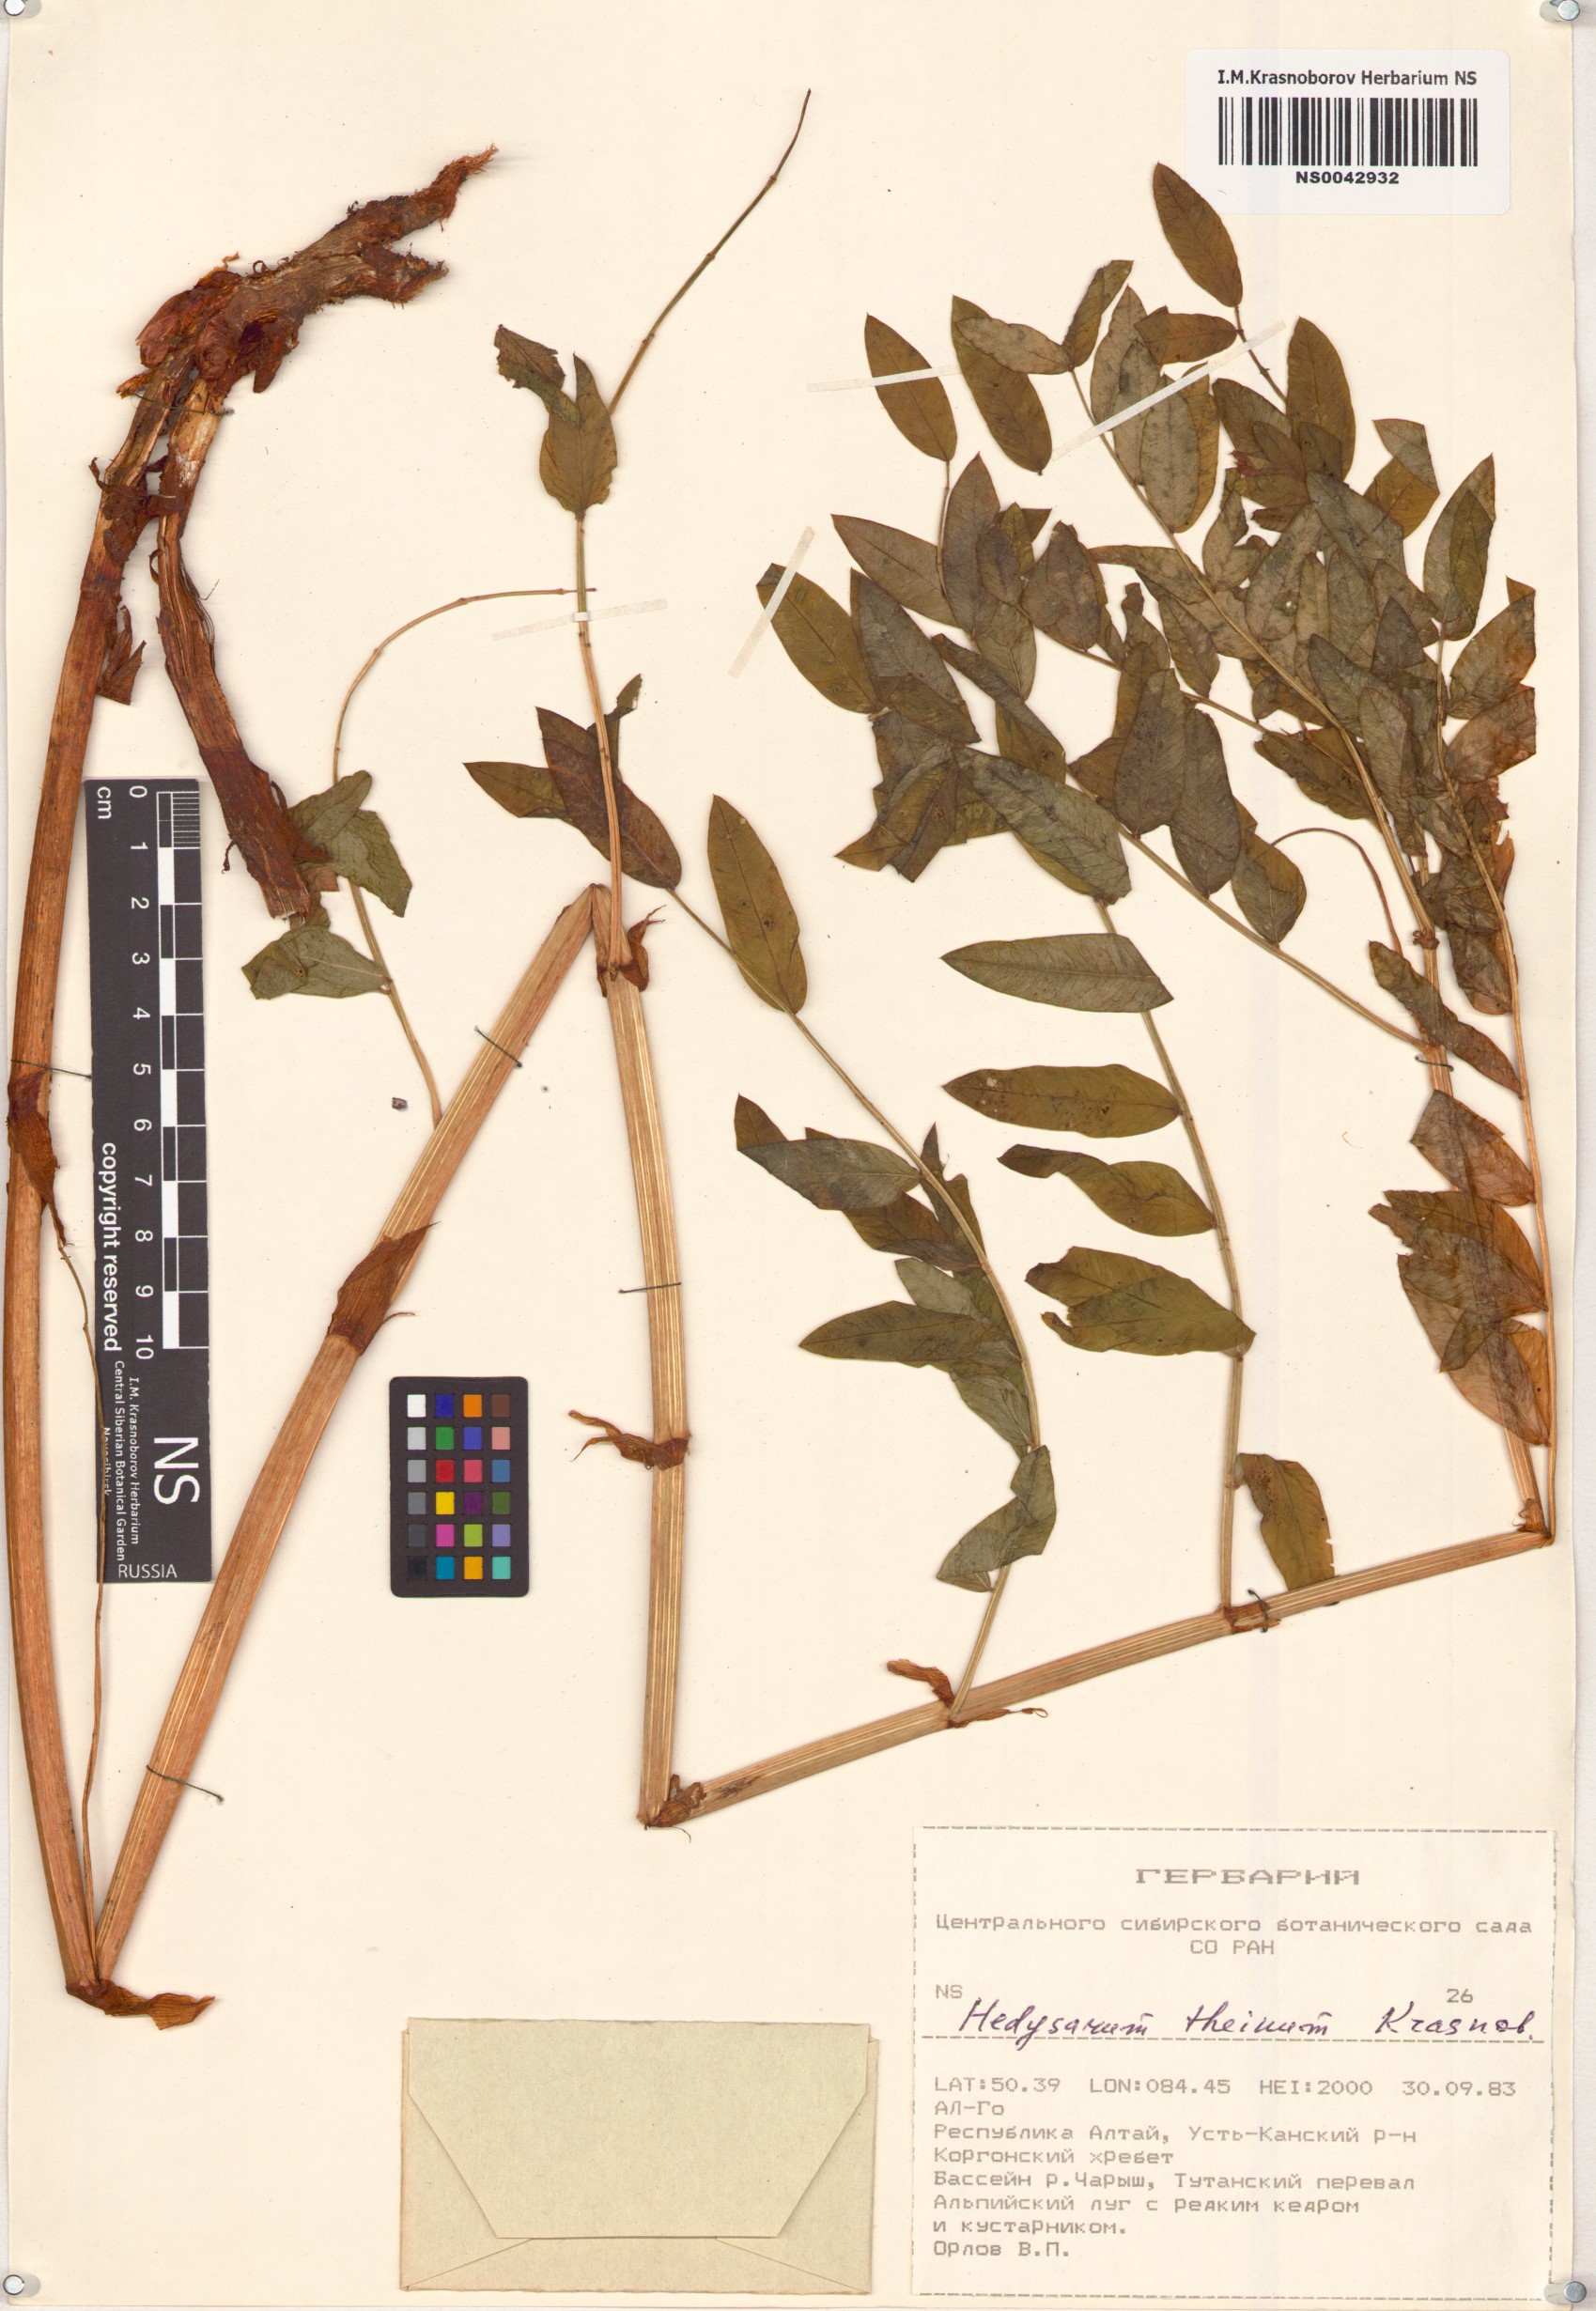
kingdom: Plantae
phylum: Tracheophyta
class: Magnoliopsida
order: Fabales
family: Fabaceae
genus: Hedysarum
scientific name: Hedysarum theinum
